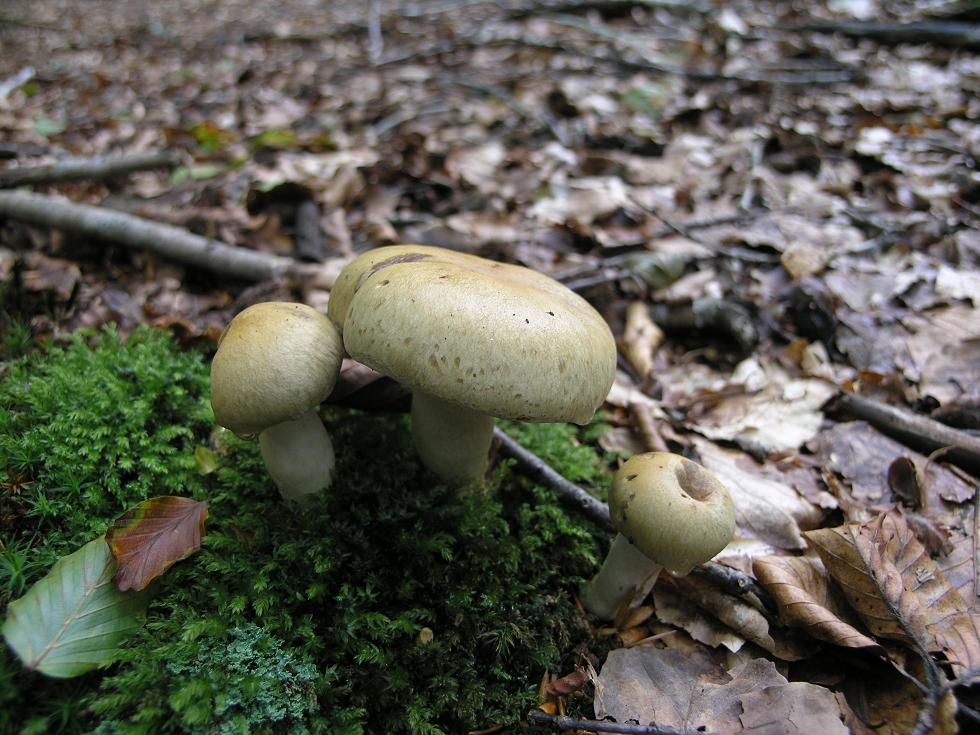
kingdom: Fungi
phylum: Basidiomycota
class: Agaricomycetes
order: Agaricales
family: Cortinariaceae
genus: Cortinarius
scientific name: Cortinarius subtortus
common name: olivengul slørhat
